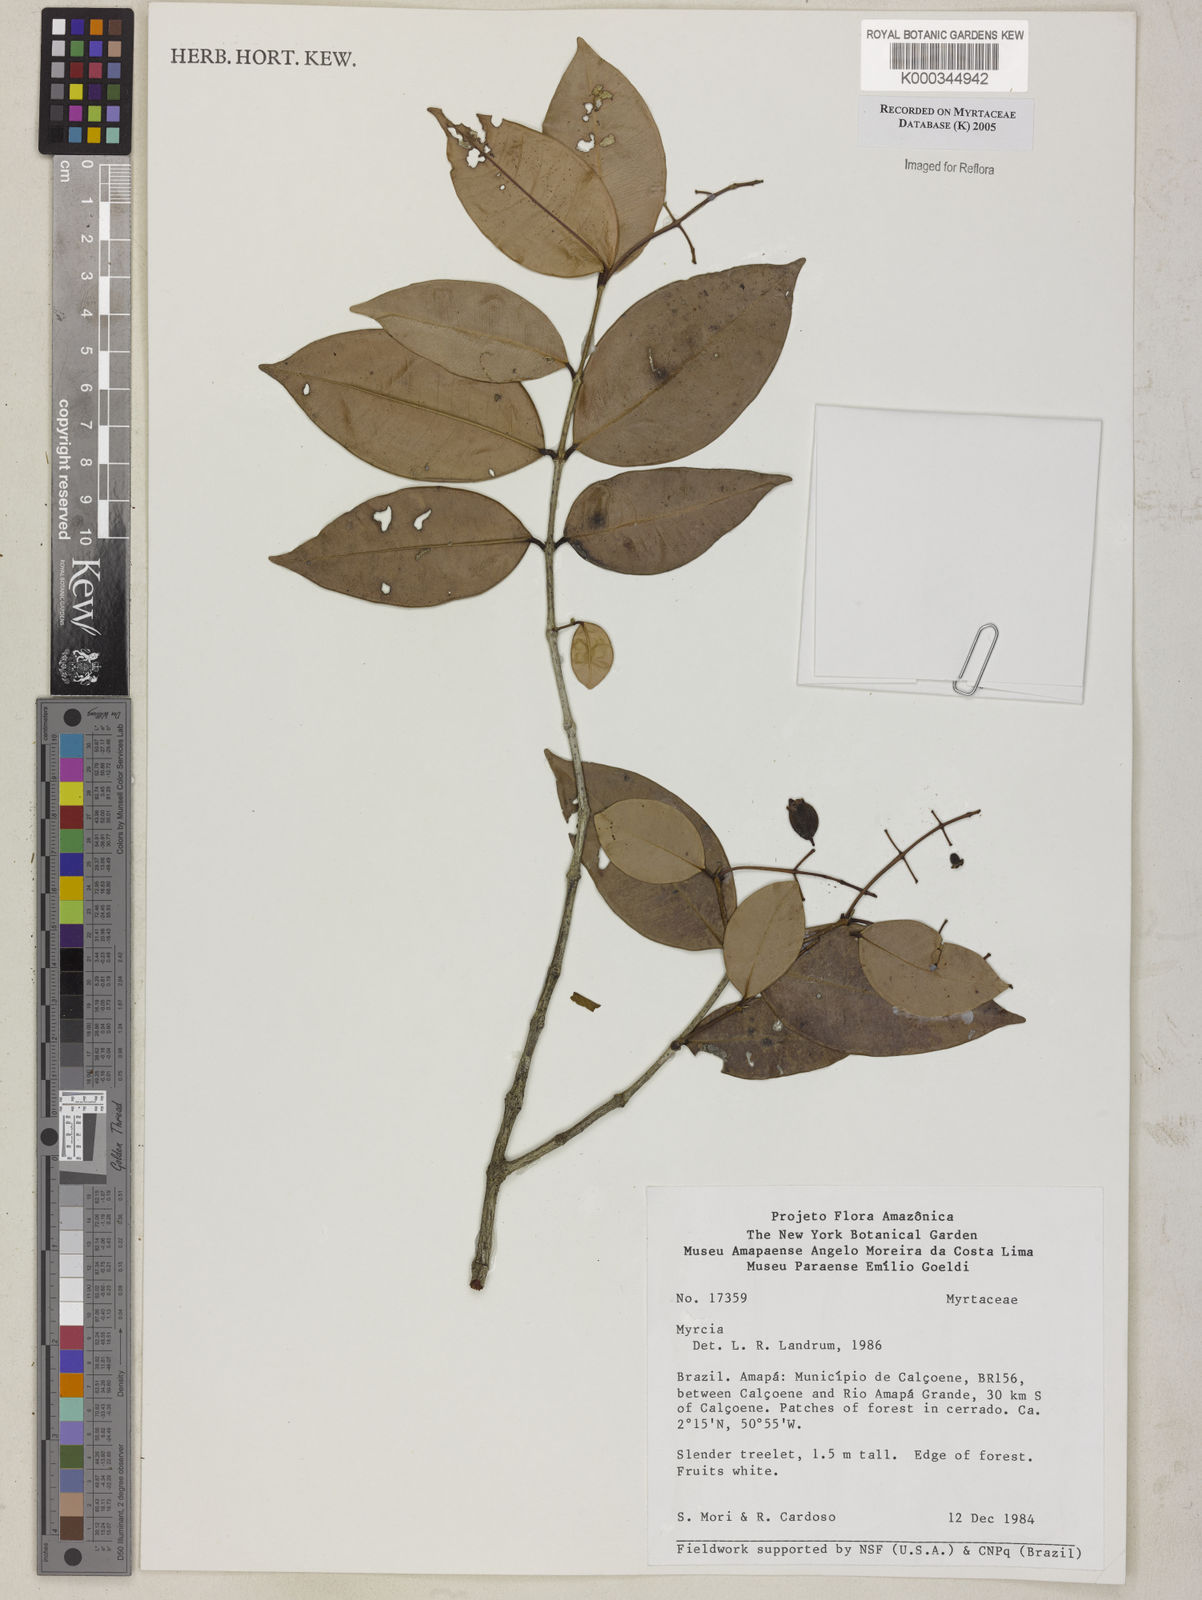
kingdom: Plantae
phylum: Tracheophyta
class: Magnoliopsida
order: Myrtales
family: Myrtaceae
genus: Myrcia
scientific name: Myrcia
